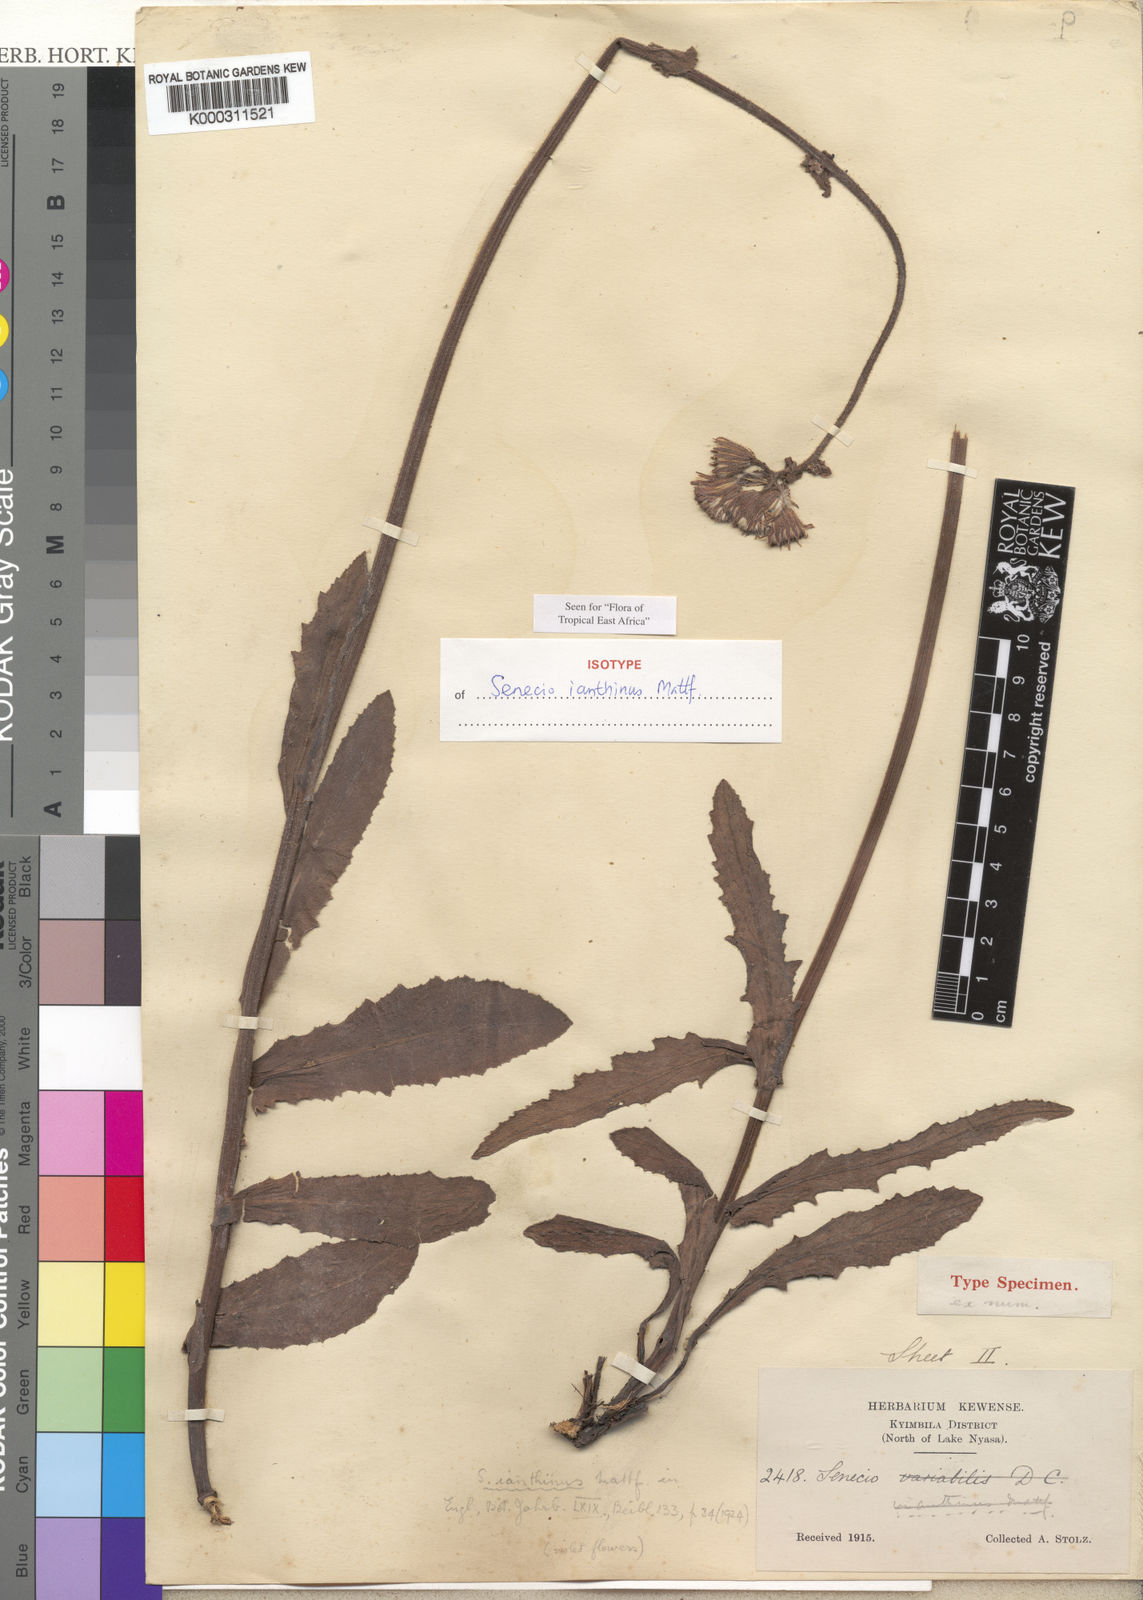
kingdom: Plantae
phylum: Tracheophyta
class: Magnoliopsida
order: Asterales
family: Asteraceae
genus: Senecio
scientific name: Senecio
